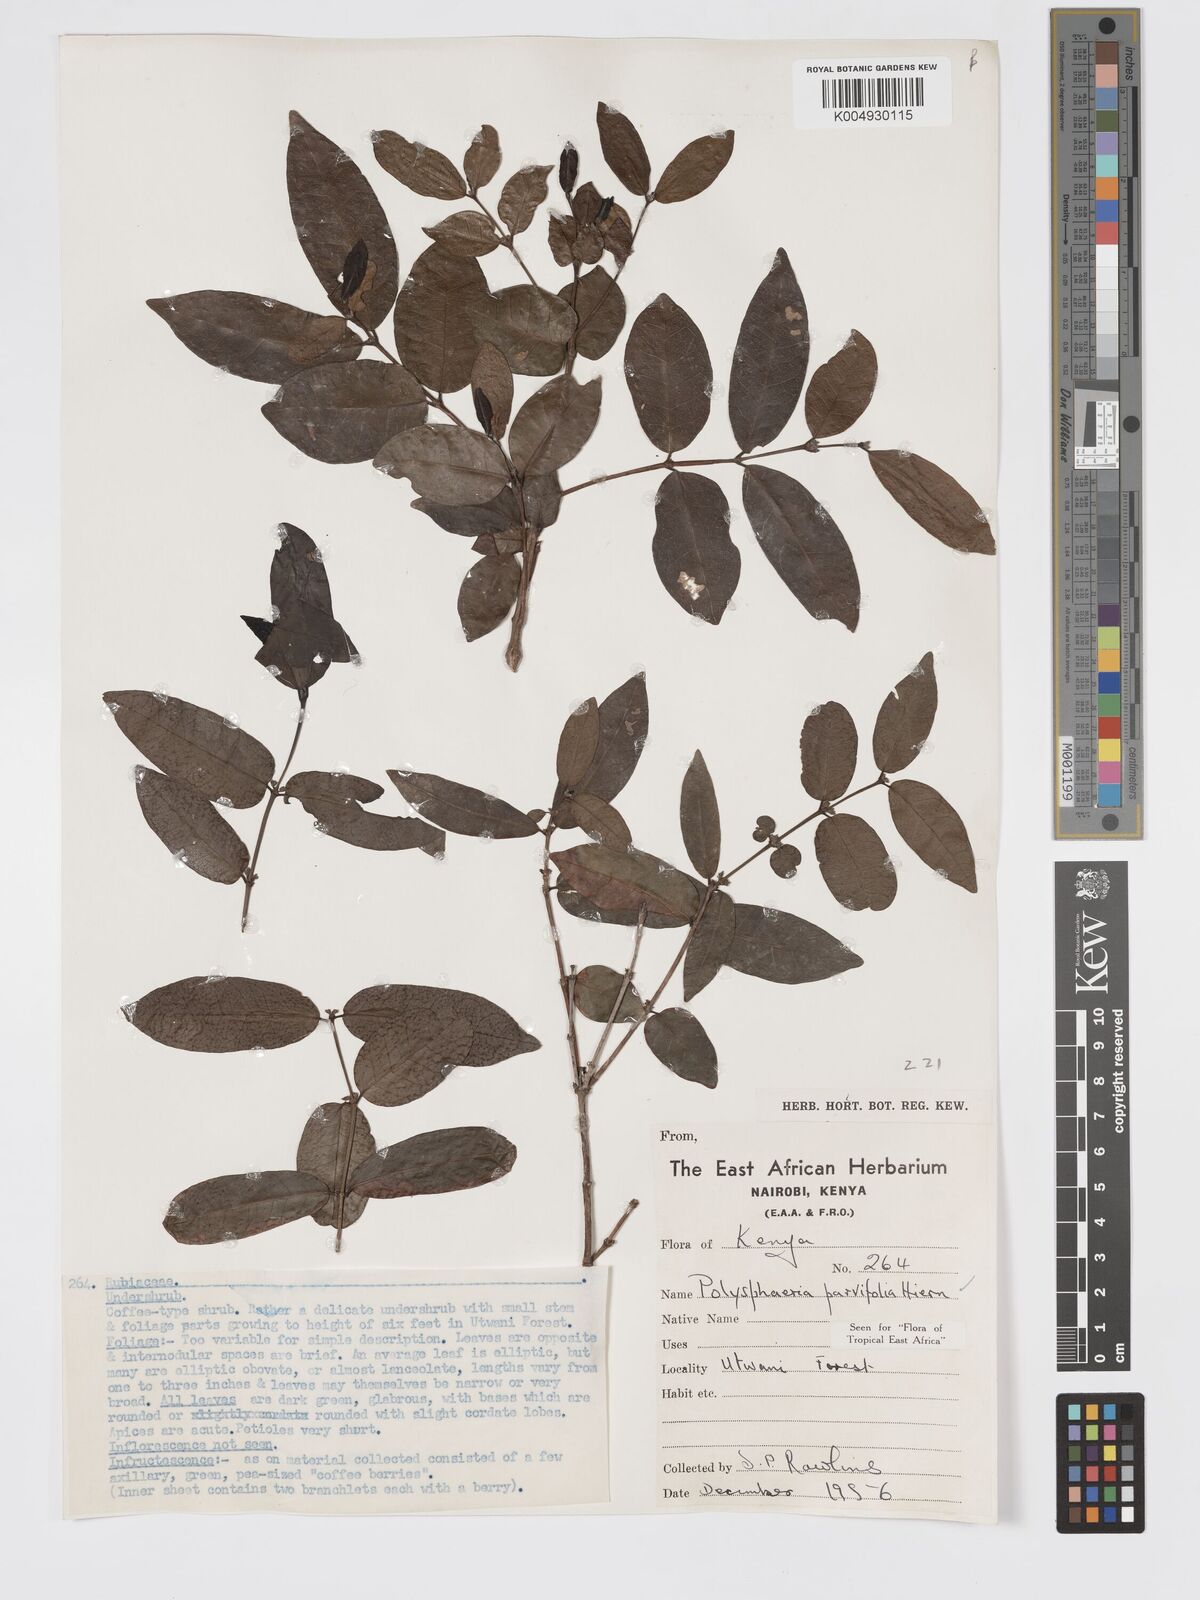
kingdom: Plantae
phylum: Tracheophyta
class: Magnoliopsida
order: Gentianales
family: Rubiaceae
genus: Polysphaeria
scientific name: Polysphaeria parvifolia
